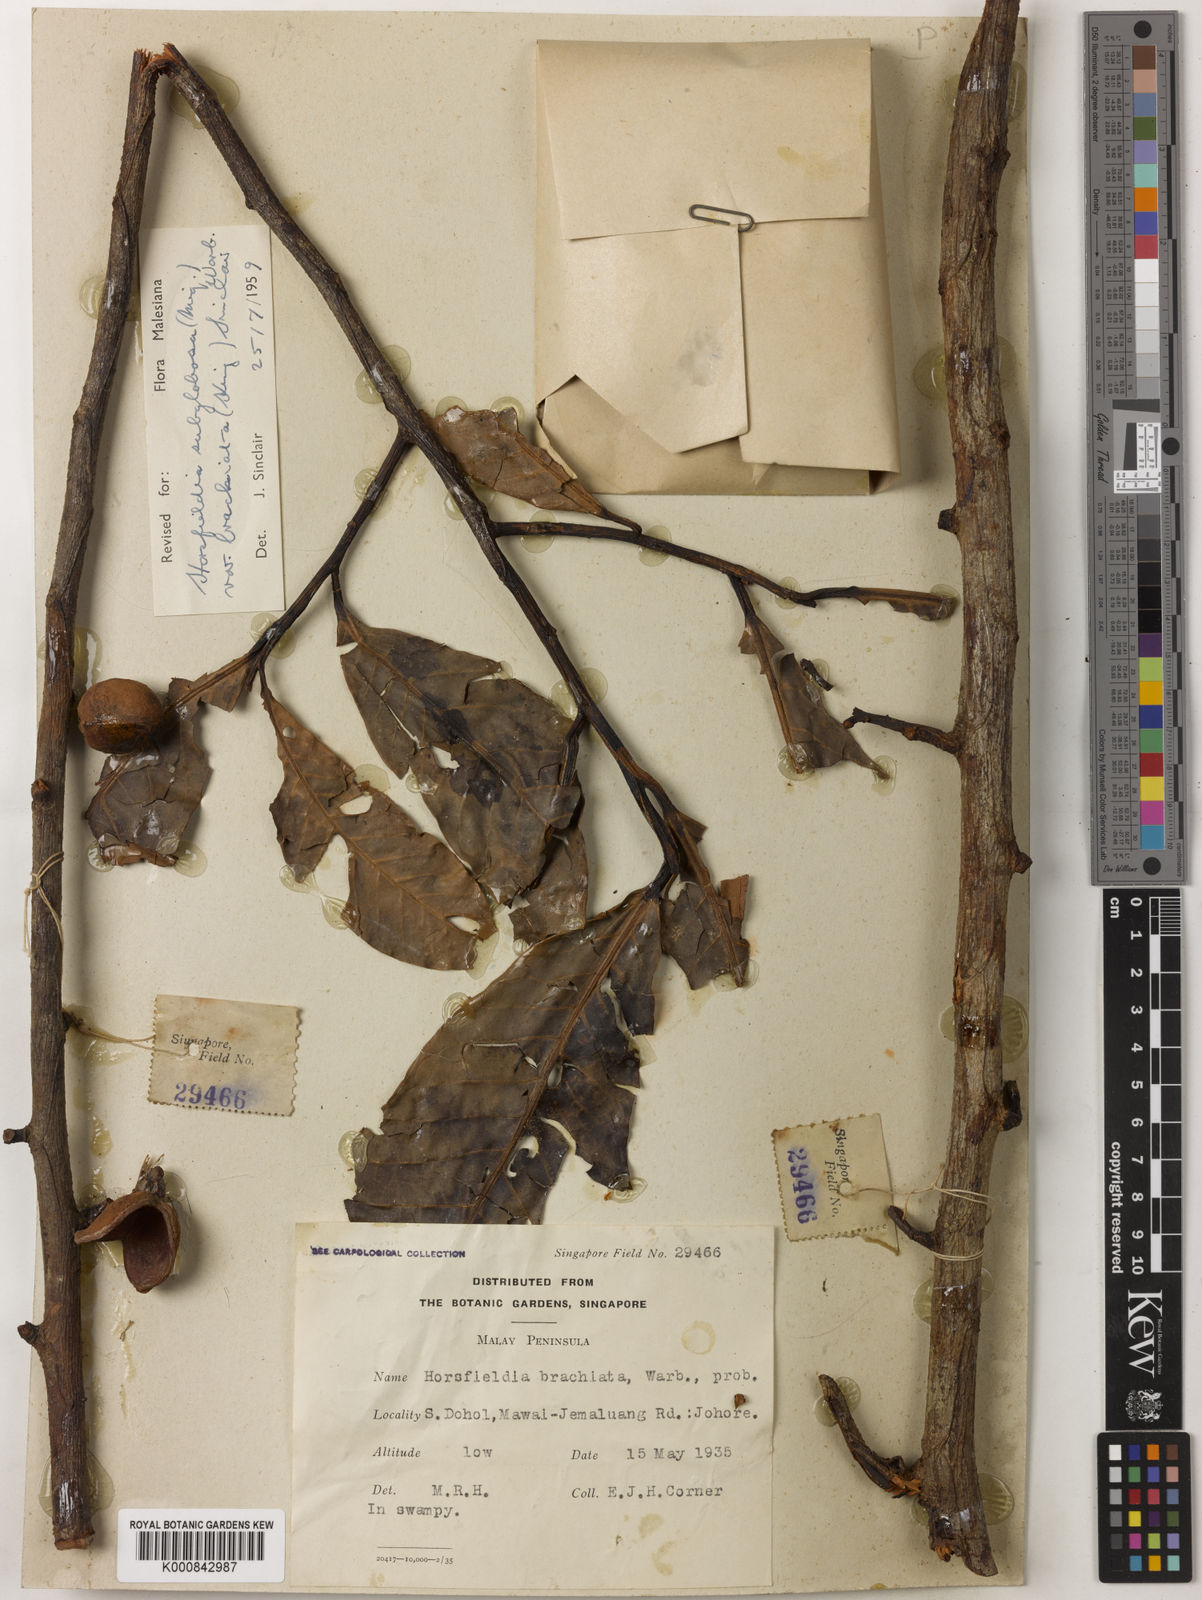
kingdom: Plantae
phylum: Tracheophyta
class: Magnoliopsida
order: Magnoliales
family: Myristicaceae
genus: Horsfieldia
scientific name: Horsfieldia brachiata
